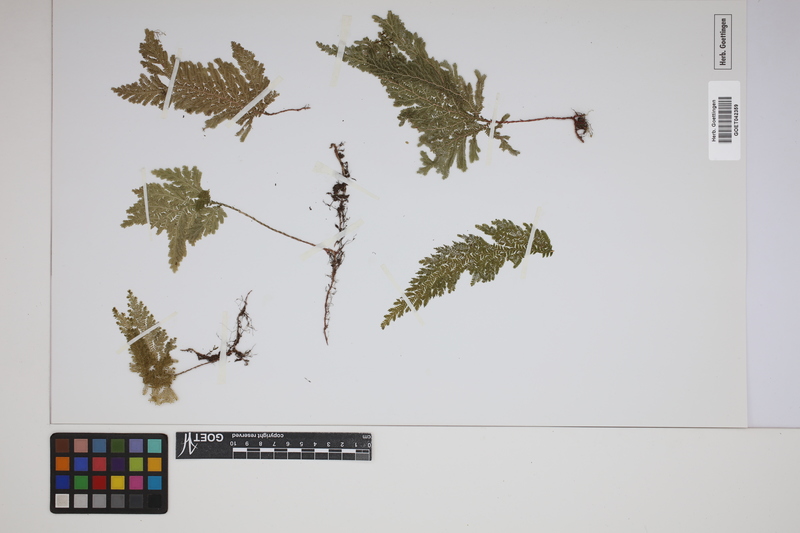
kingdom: Plantae
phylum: Tracheophyta
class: Lycopodiopsida
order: Selaginellales
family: Selaginellaceae
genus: Selaginella
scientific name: Selaginella haematodes
